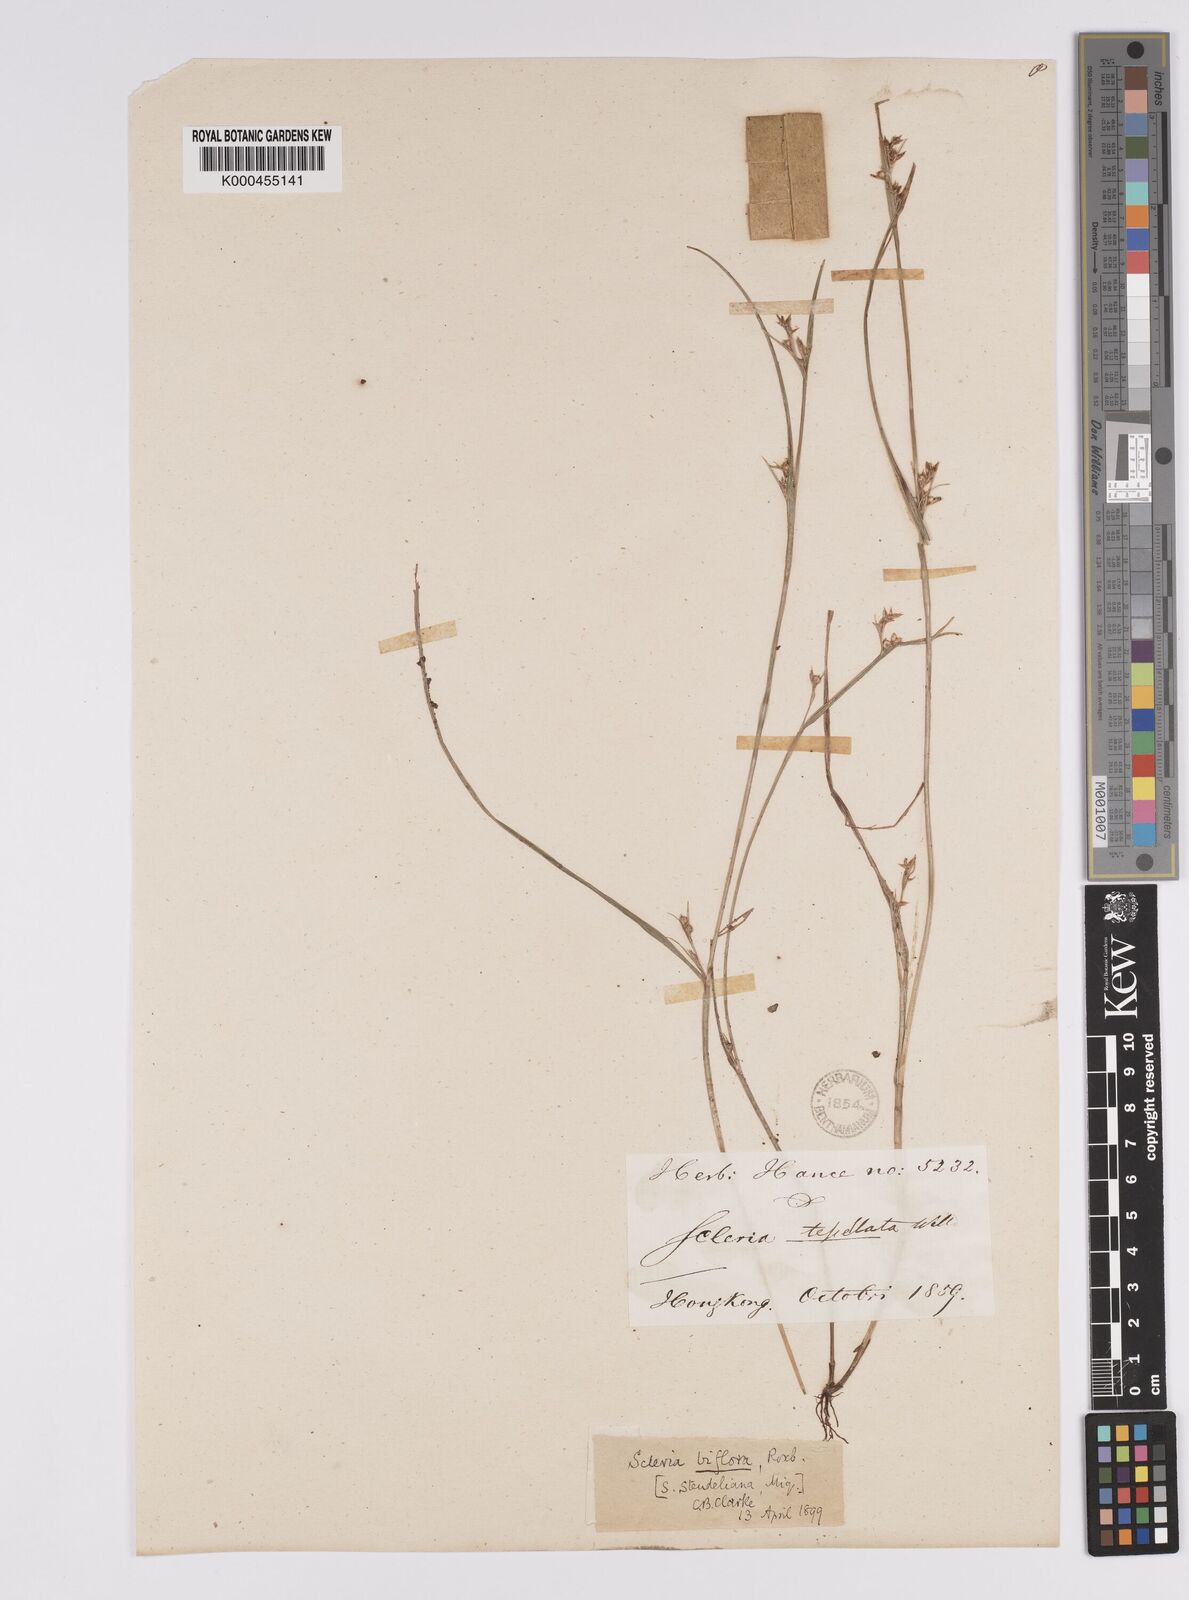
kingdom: Plantae
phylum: Tracheophyta
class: Liliopsida
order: Poales
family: Cyperaceae
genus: Scleria
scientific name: Scleria biflora
